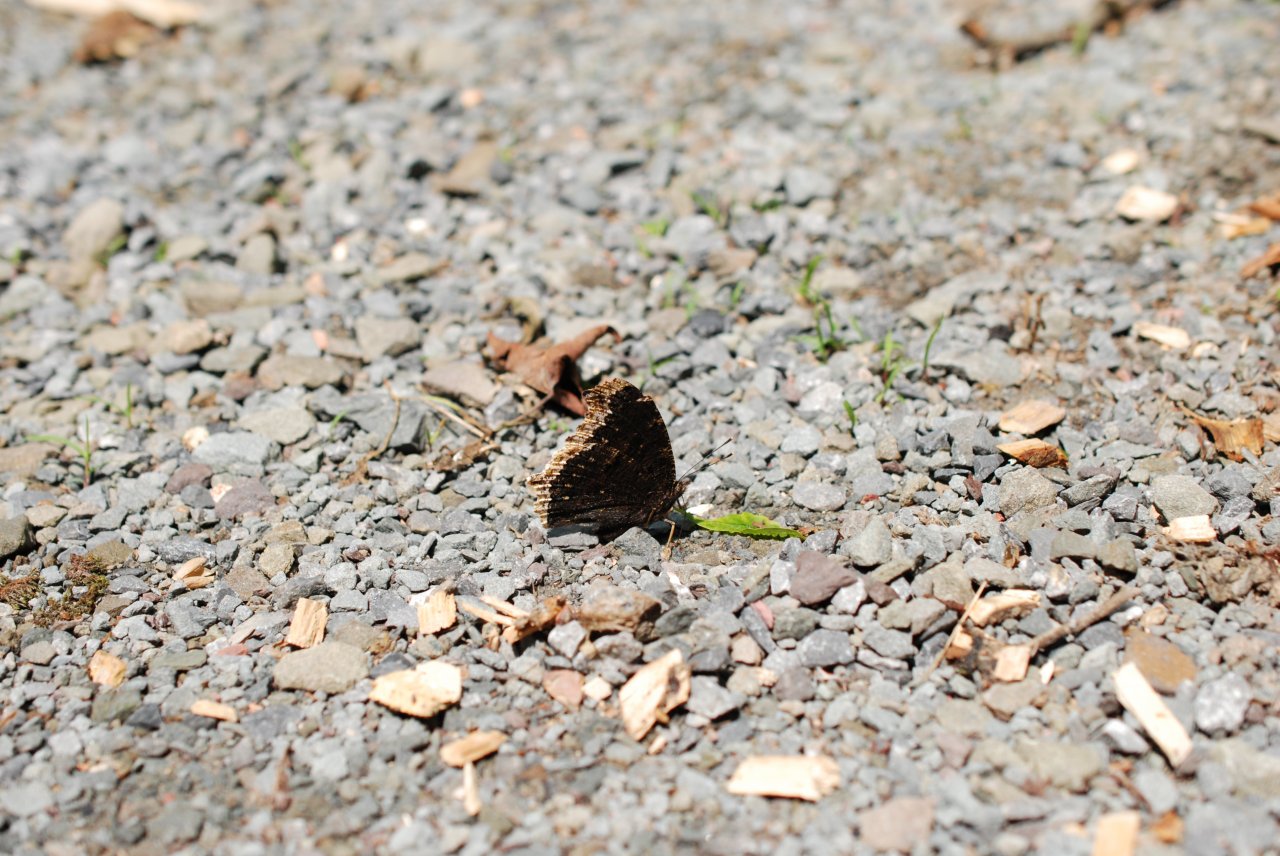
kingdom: Animalia
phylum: Arthropoda
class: Insecta
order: Lepidoptera
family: Nymphalidae
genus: Nymphalis
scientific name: Nymphalis antiopa
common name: Mourning Cloak
